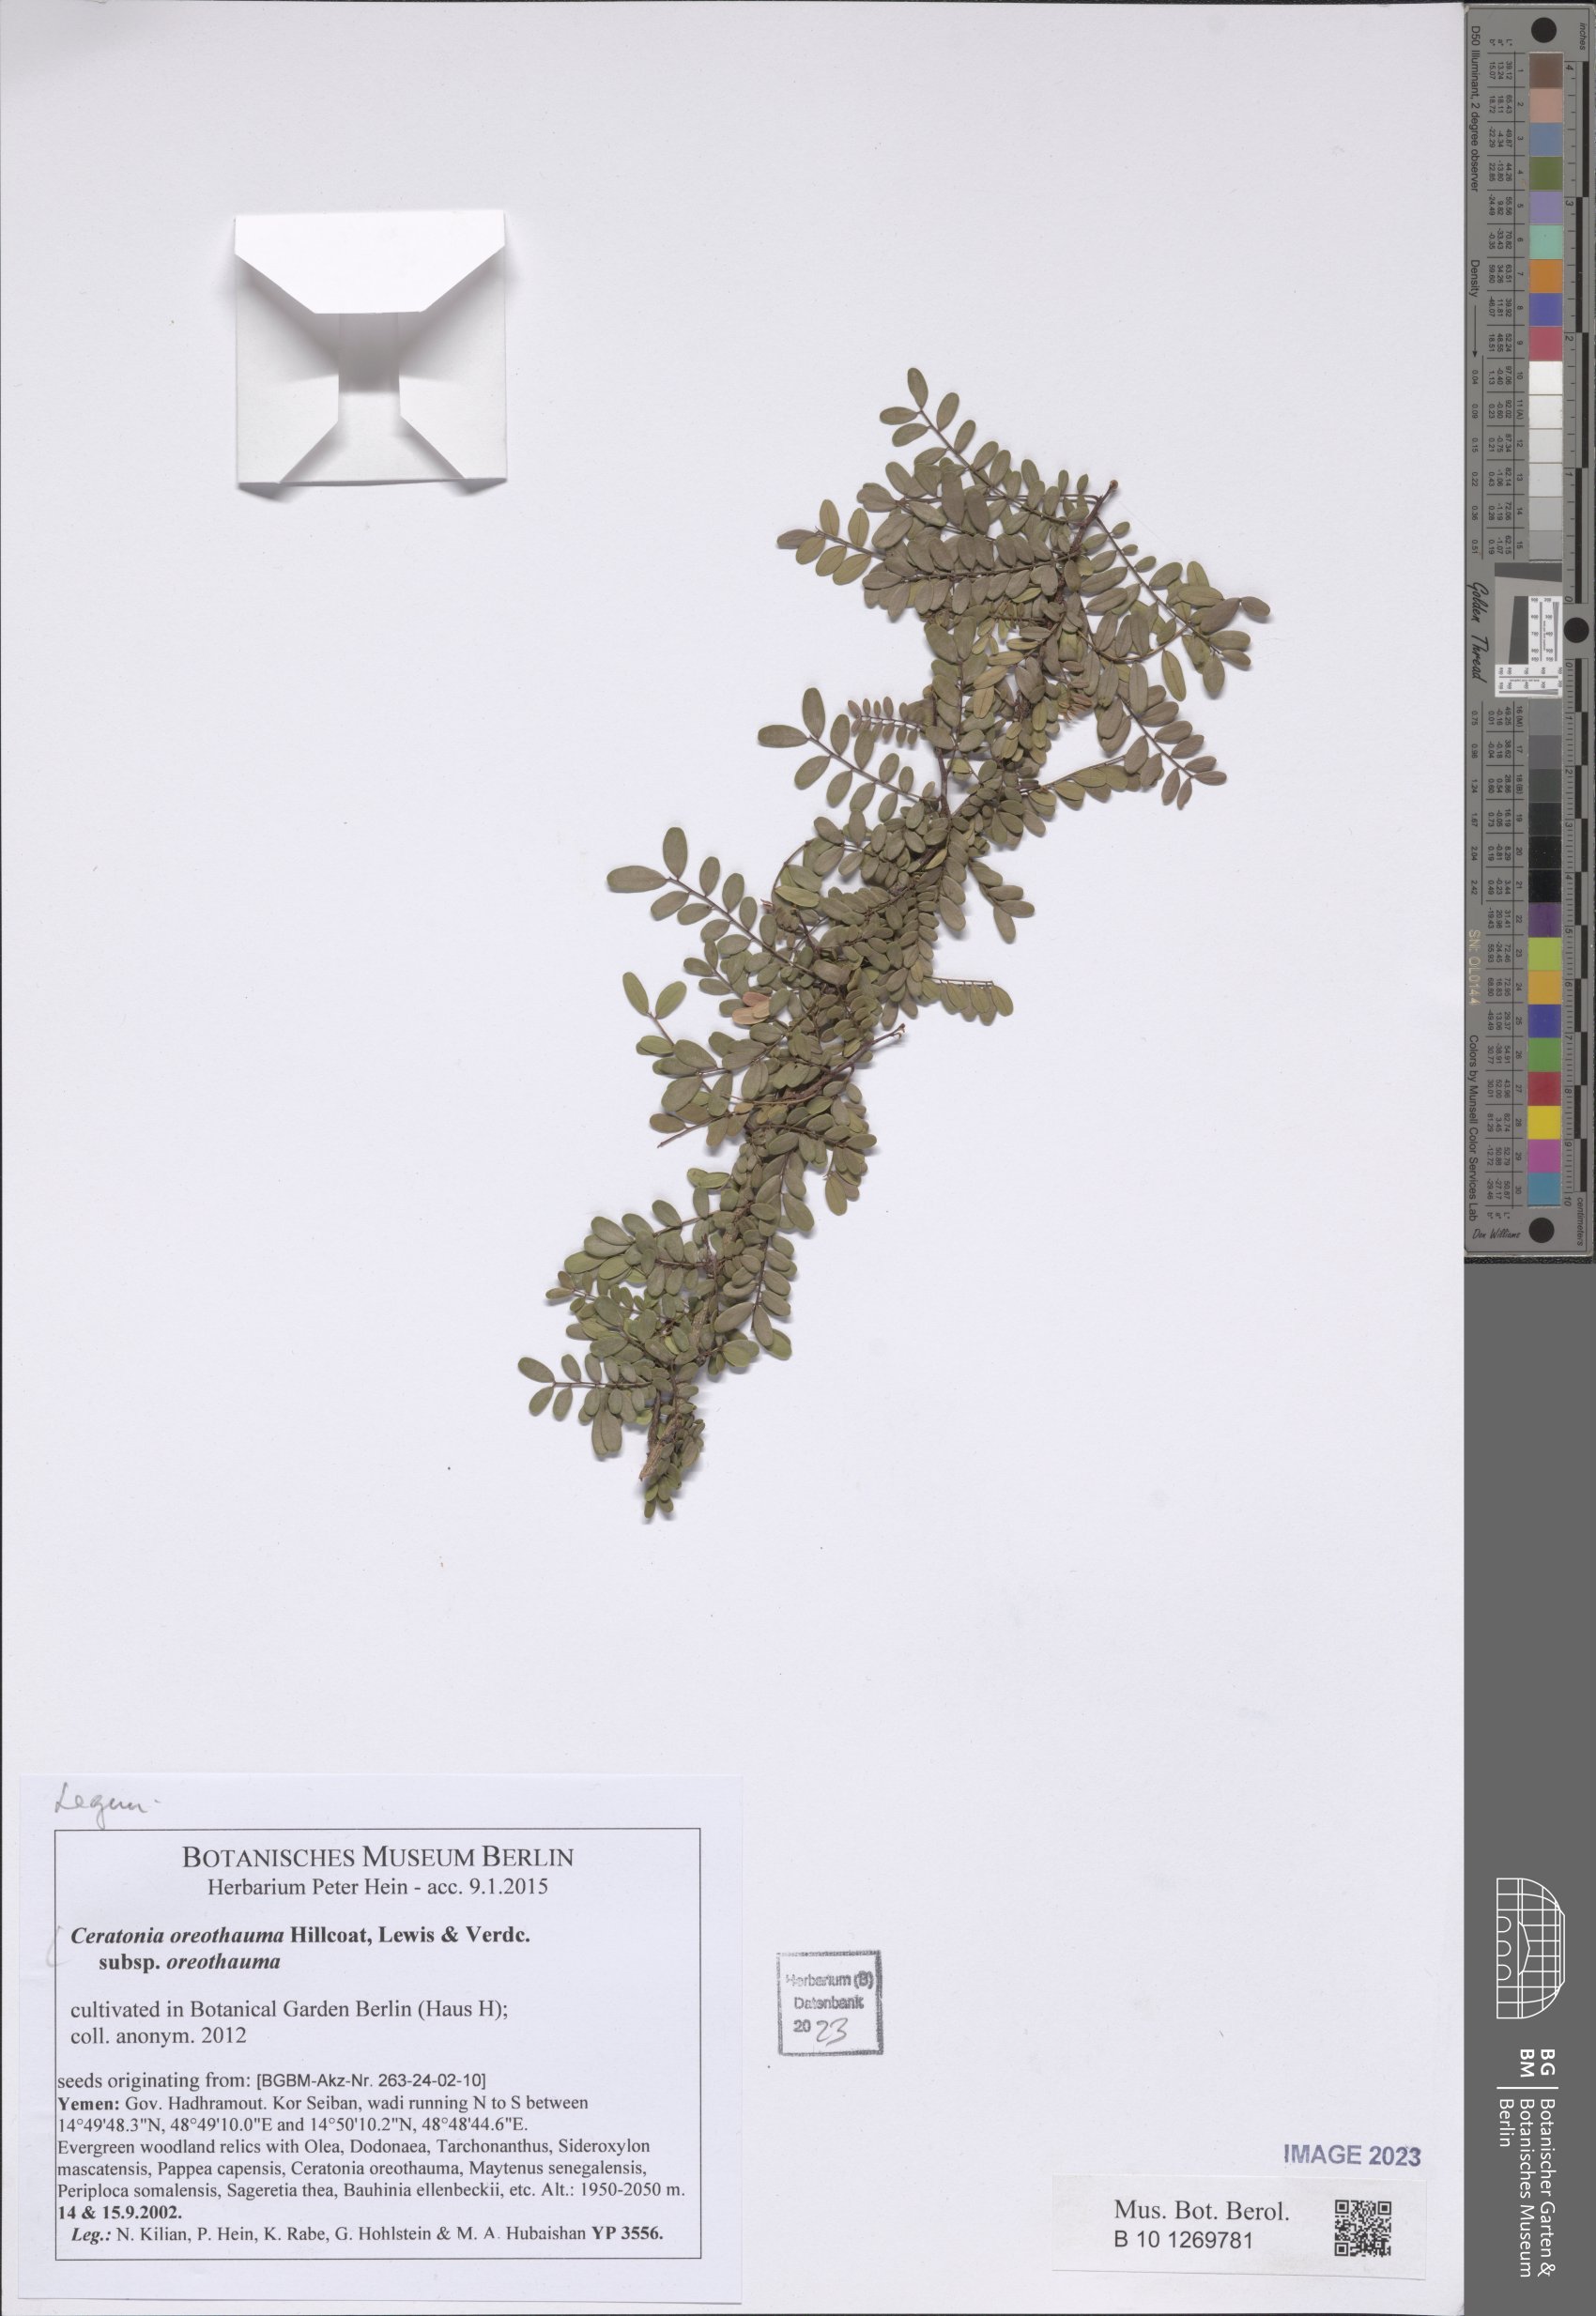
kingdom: Plantae
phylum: Tracheophyta
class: Magnoliopsida
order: Fabales
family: Fabaceae
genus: Ceratonia
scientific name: Ceratonia oreothauma
